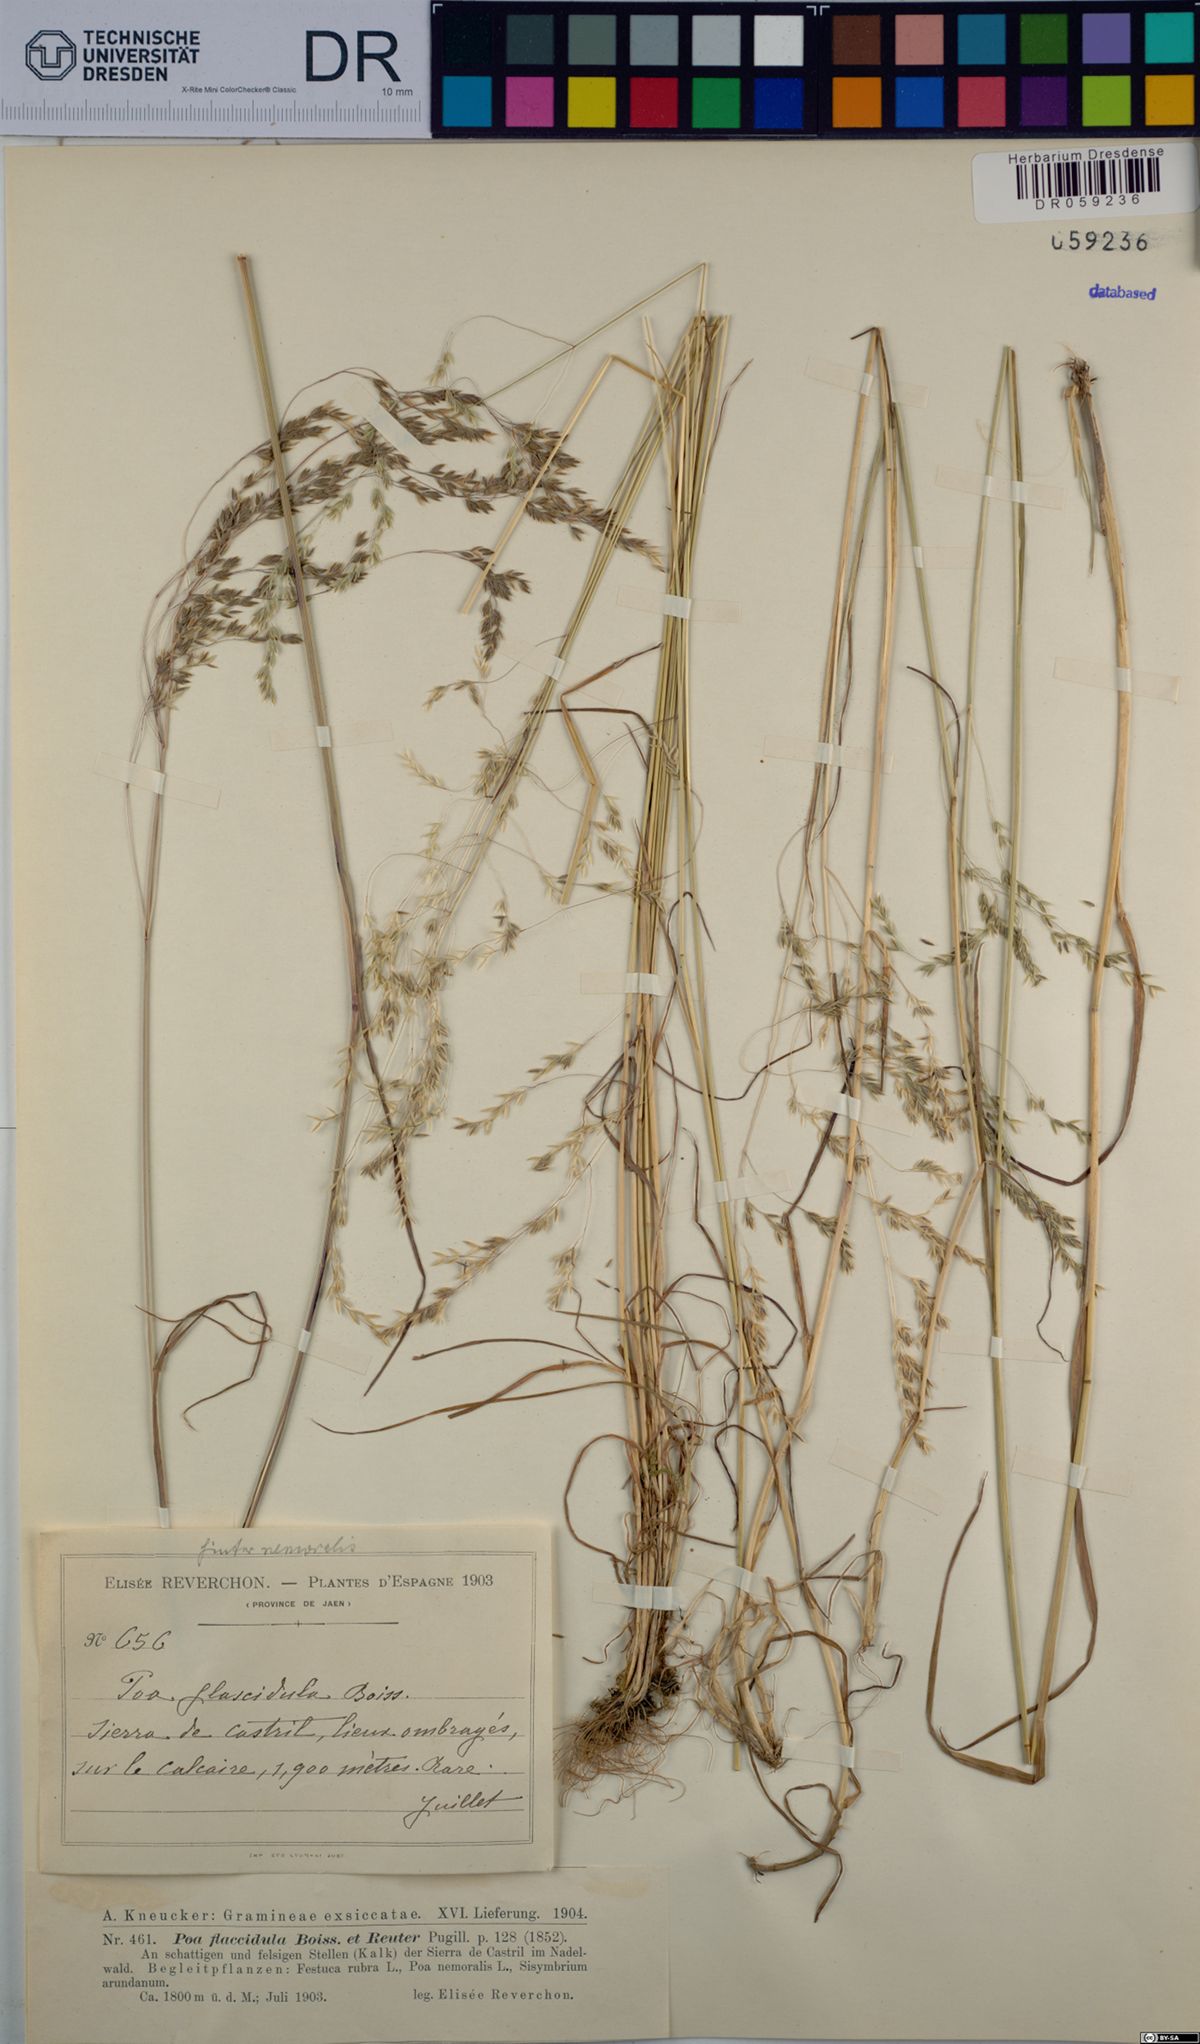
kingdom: Plantae
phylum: Tracheophyta
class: Liliopsida
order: Poales
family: Poaceae
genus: Poa
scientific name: Poa flaccidula
